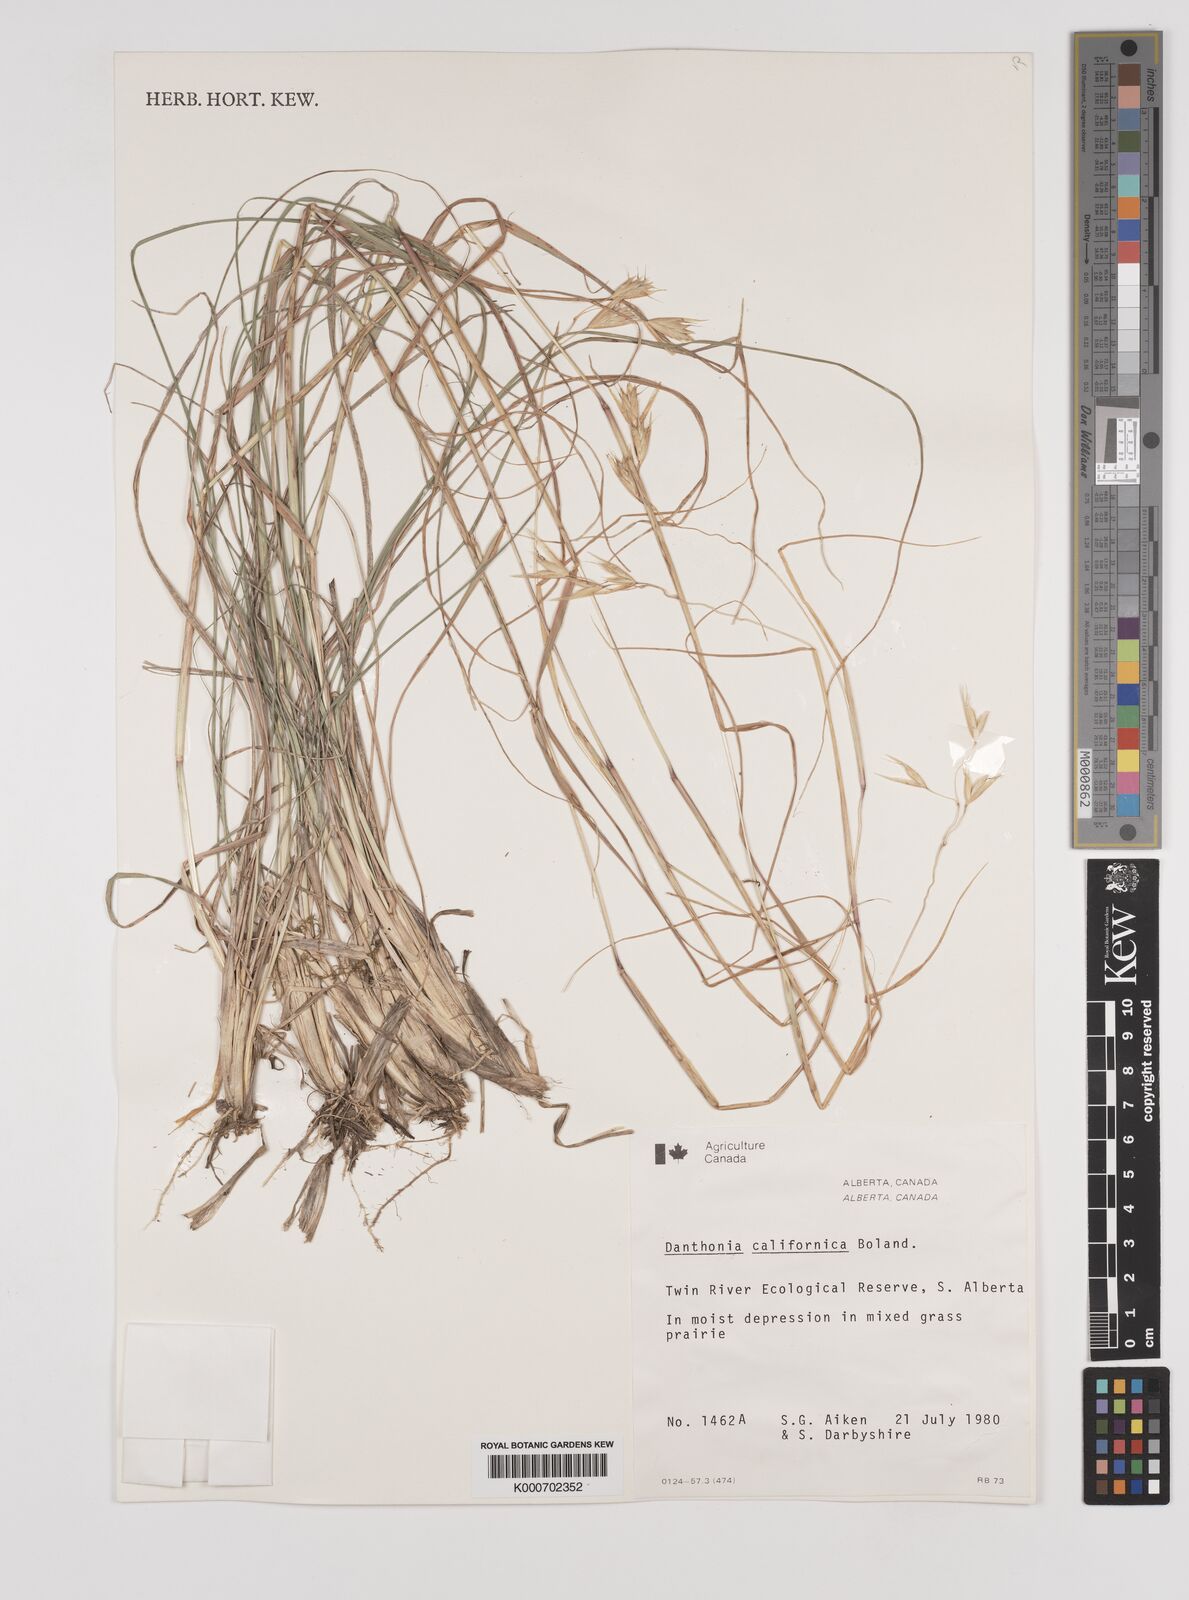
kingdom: Plantae
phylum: Tracheophyta
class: Liliopsida
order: Poales
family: Poaceae
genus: Danthonia
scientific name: Danthonia californica
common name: California oat grass
